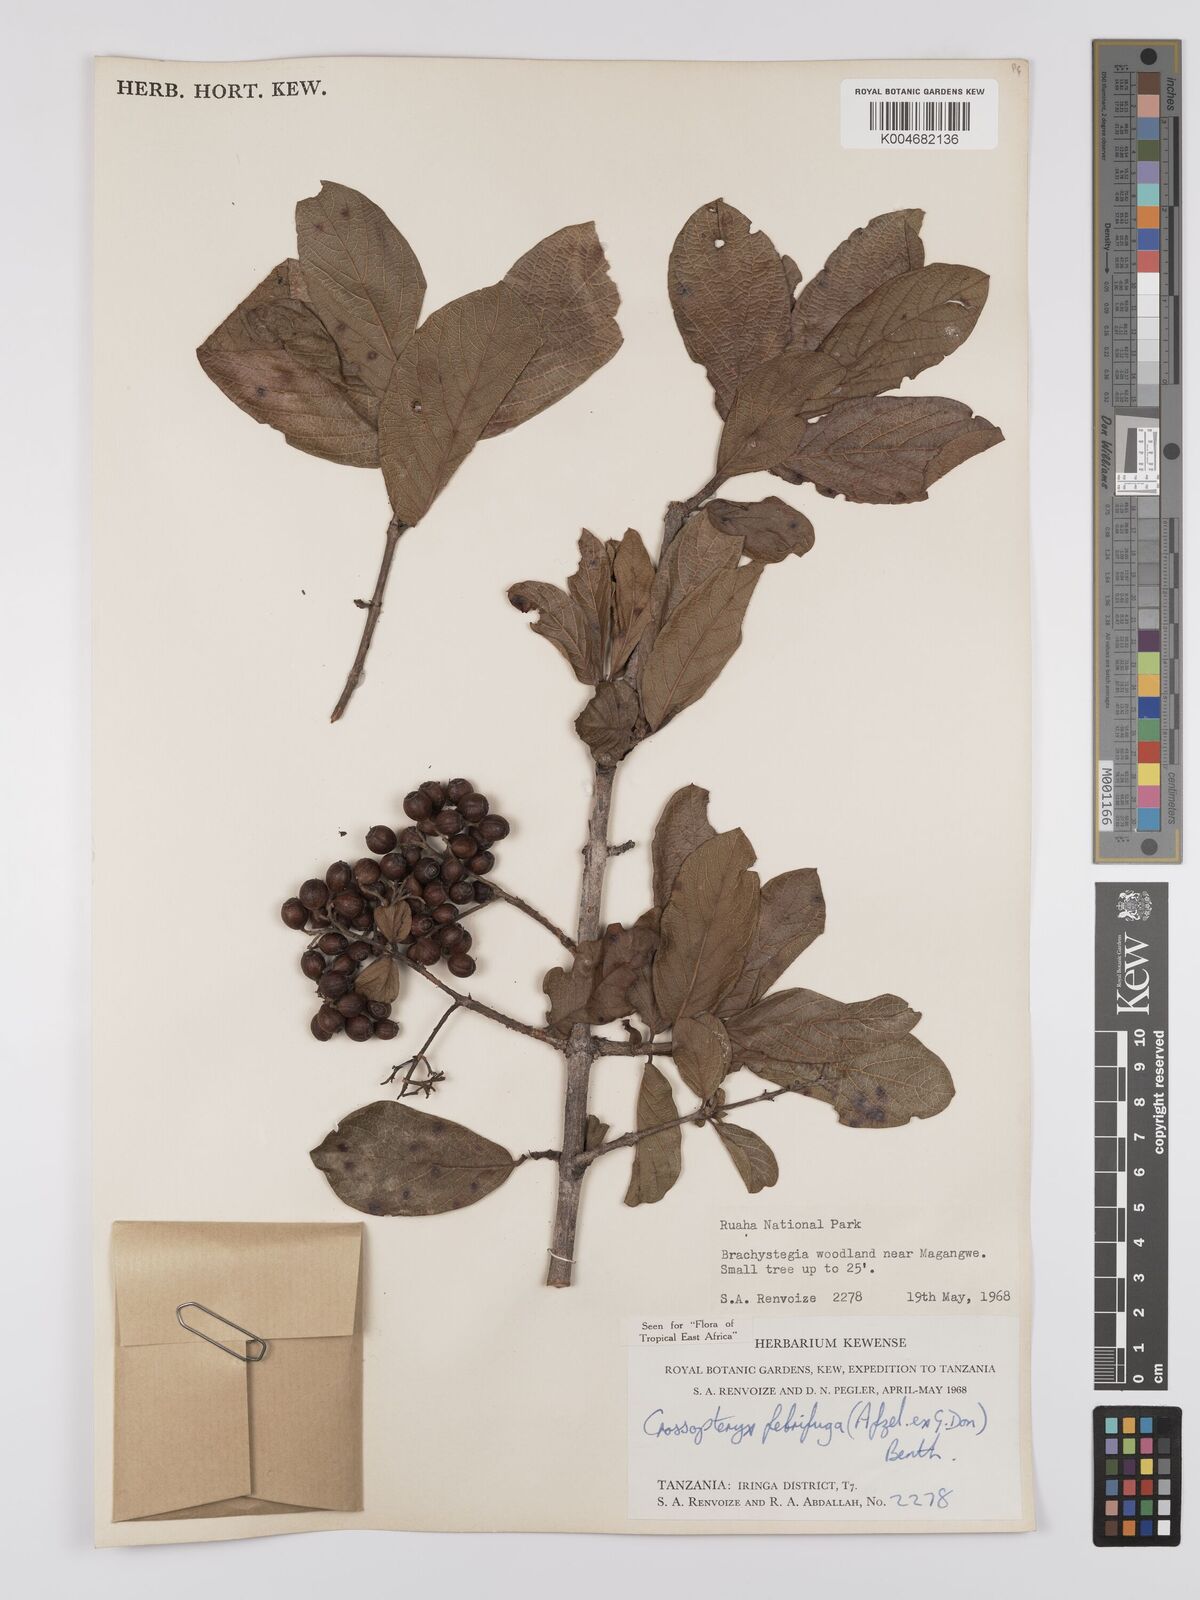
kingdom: Plantae
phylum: Tracheophyta
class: Magnoliopsida
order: Gentianales
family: Rubiaceae
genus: Crossopteryx
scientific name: Crossopteryx febrifuga
